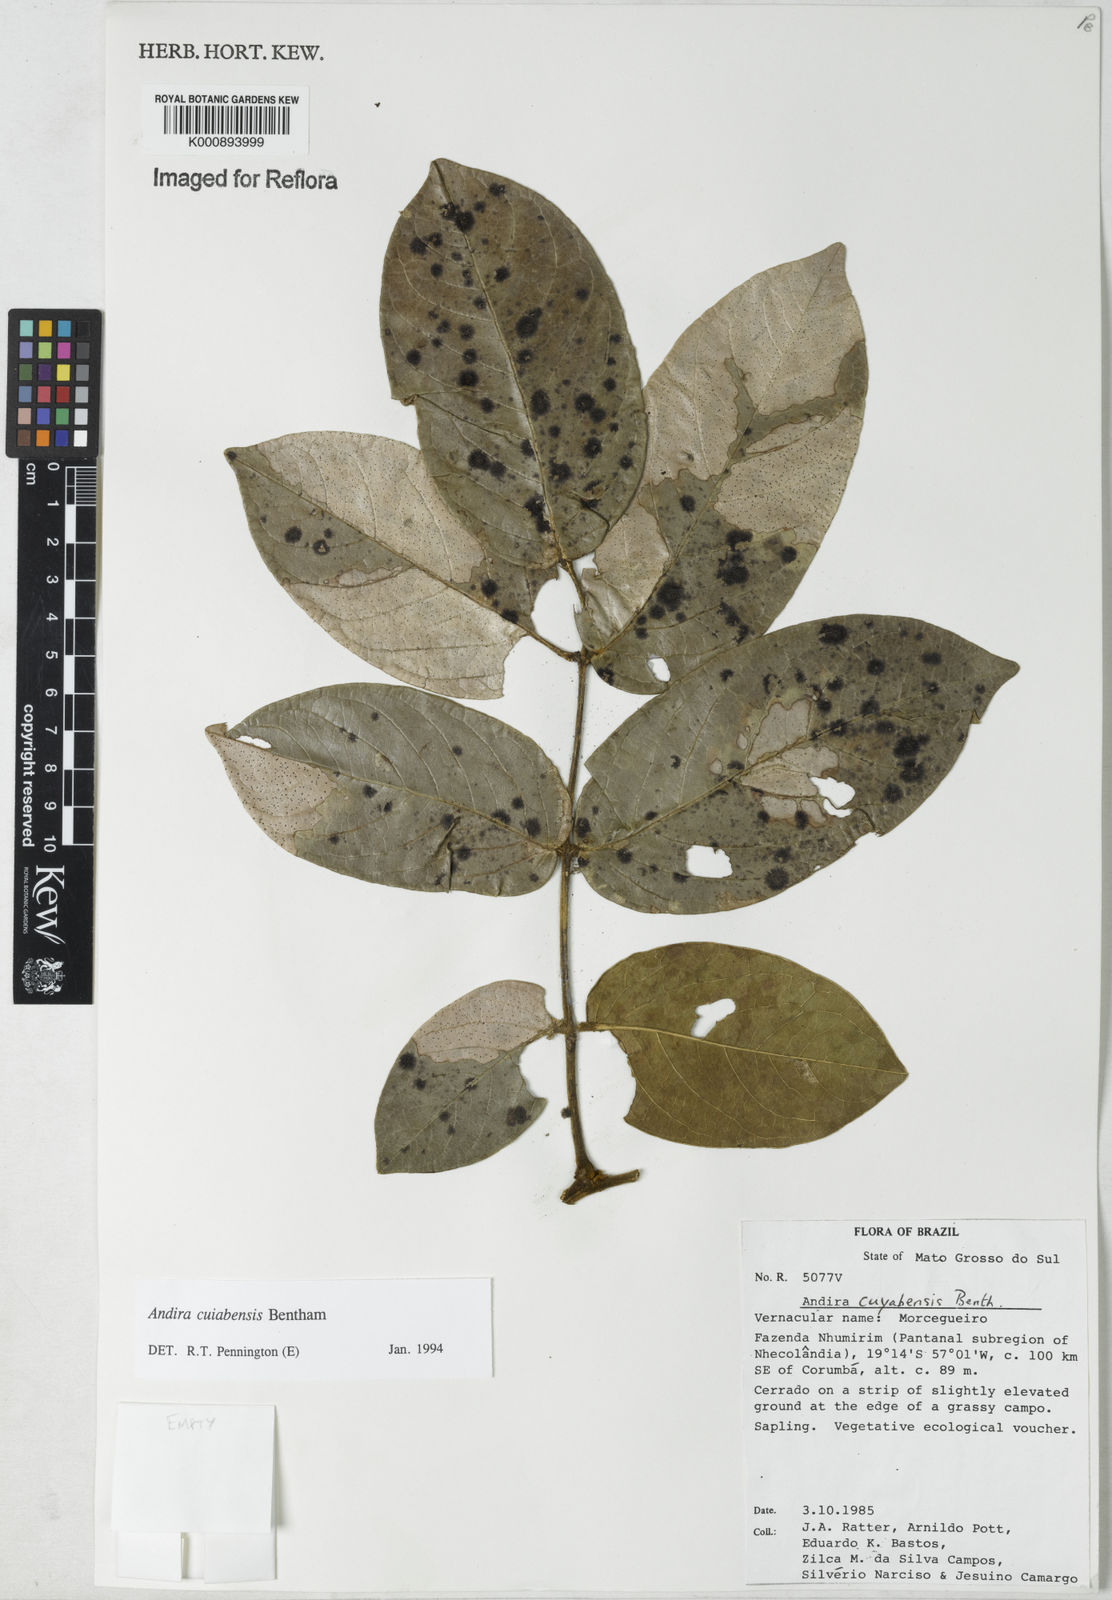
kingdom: Plantae
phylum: Tracheophyta
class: Magnoliopsida
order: Fabales
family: Fabaceae
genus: Andira
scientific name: Andira cujabensis
